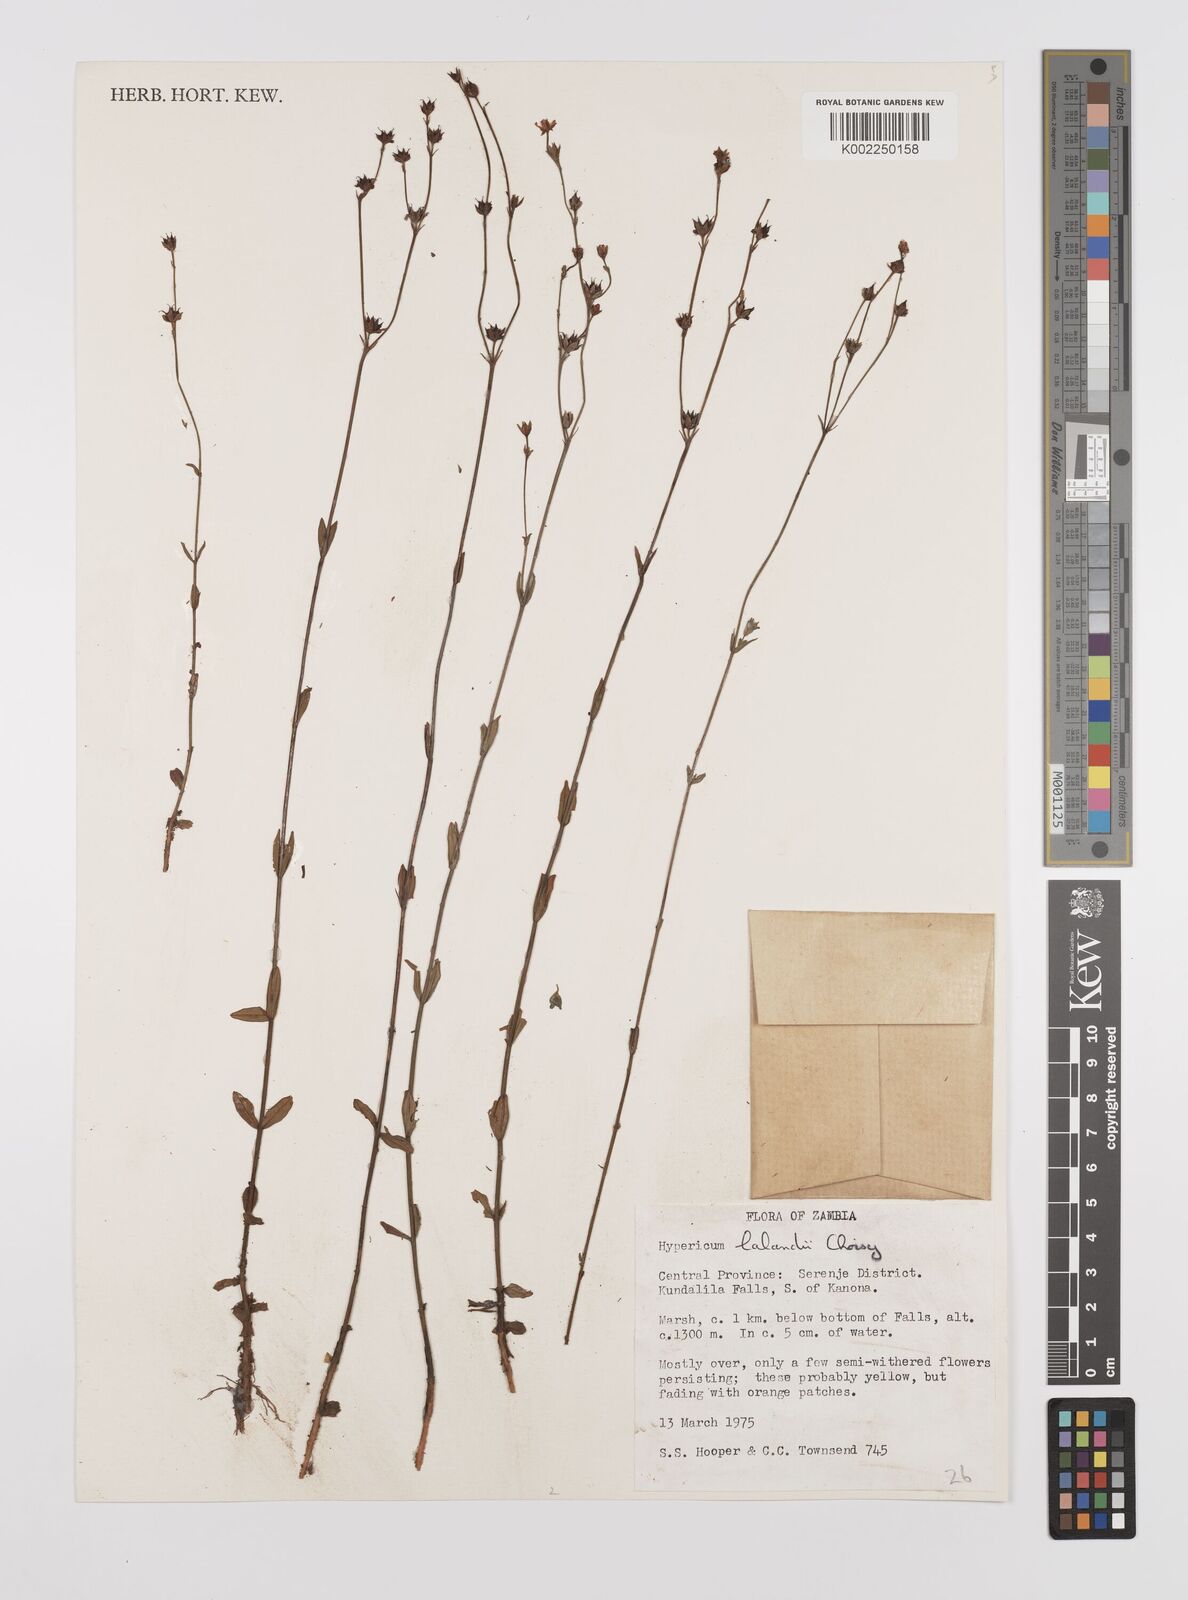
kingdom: Plantae
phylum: Tracheophyta
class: Magnoliopsida
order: Malpighiales
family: Hypericaceae
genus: Hypericum
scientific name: Hypericum lalandii
